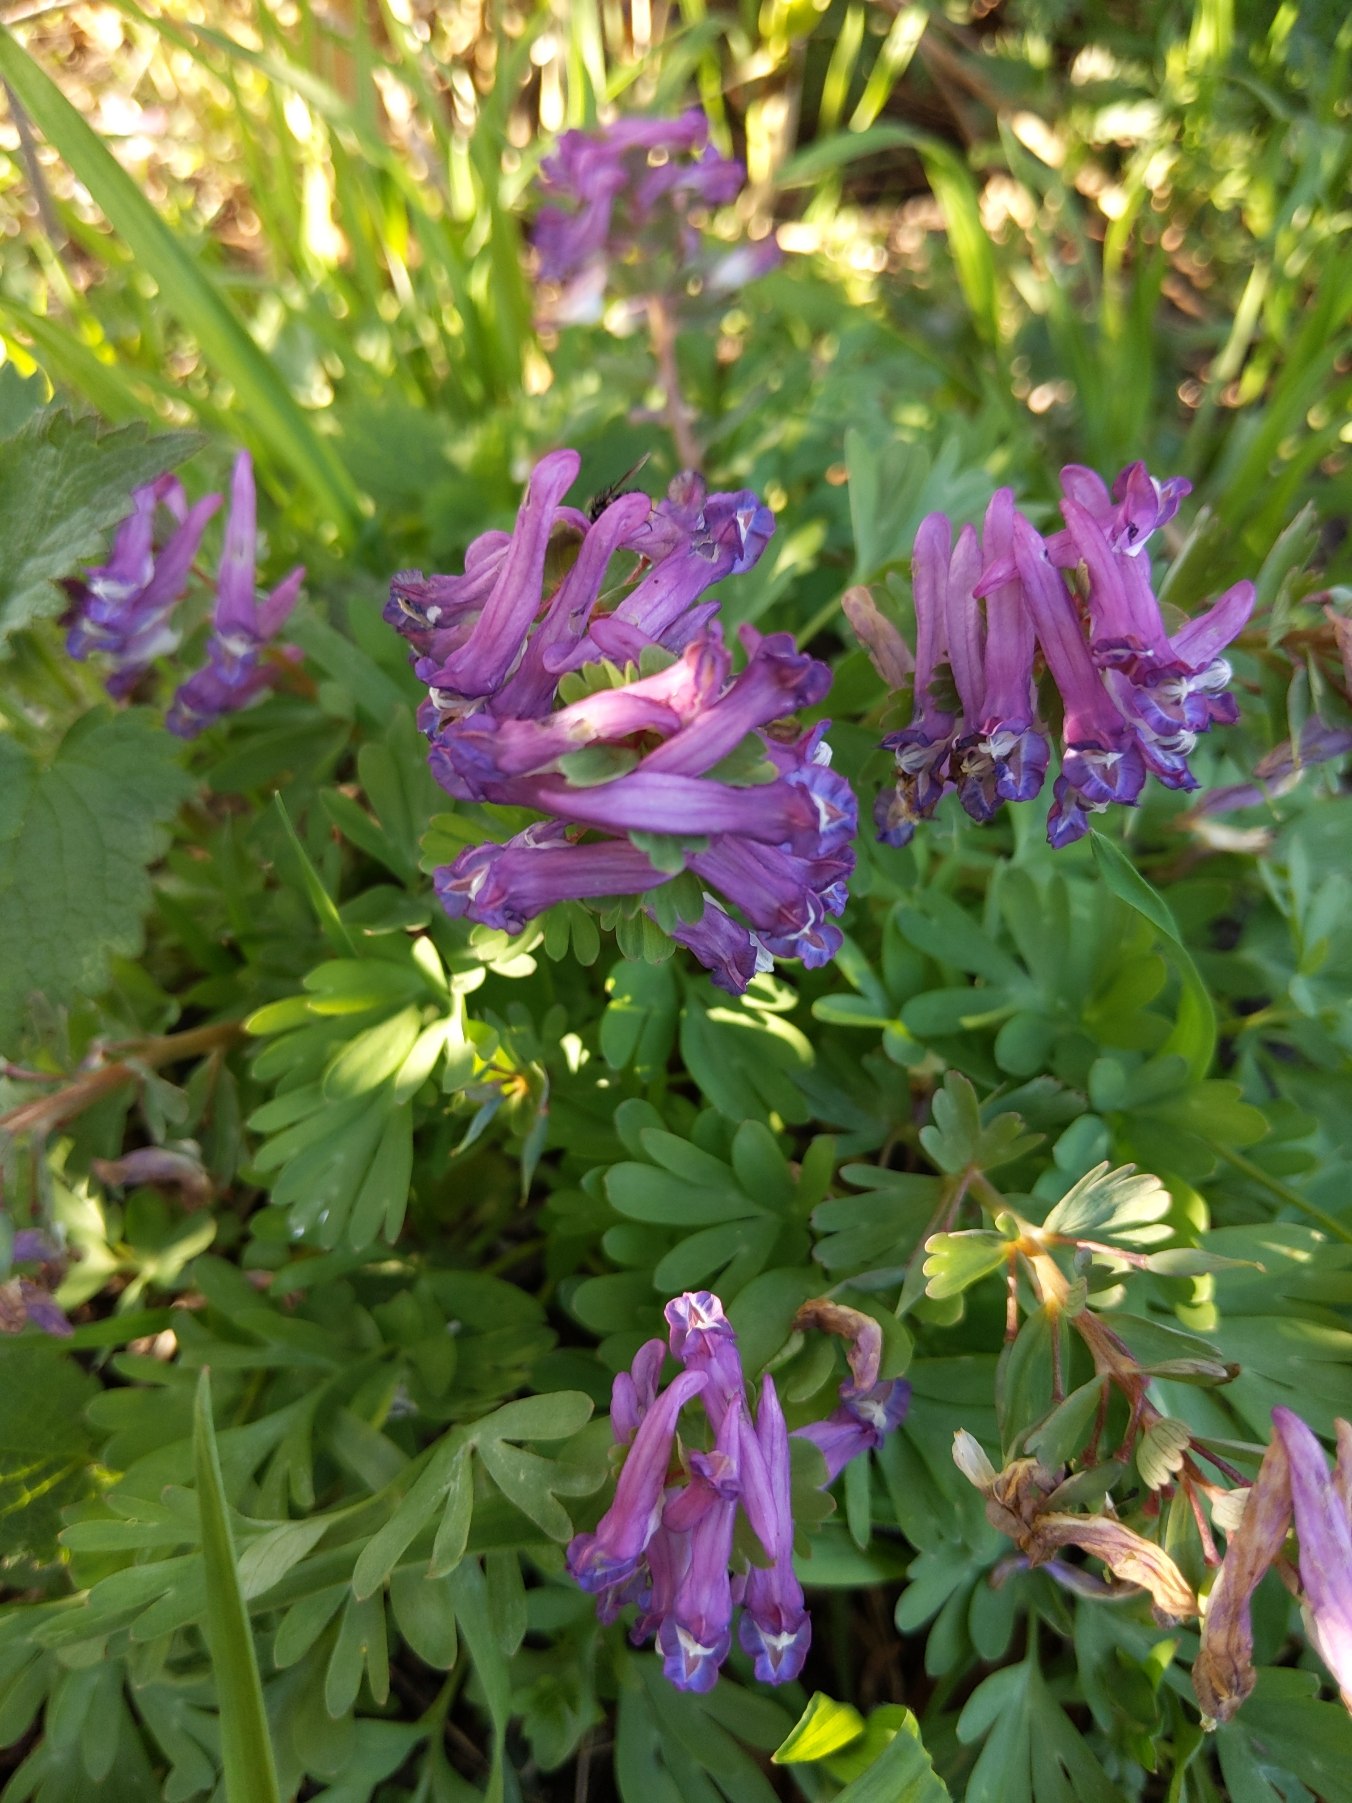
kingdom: Plantae
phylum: Tracheophyta
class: Magnoliopsida
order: Ranunculales
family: Papaveraceae
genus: Corydalis
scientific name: Corydalis solida
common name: Langstilket lærkespore
